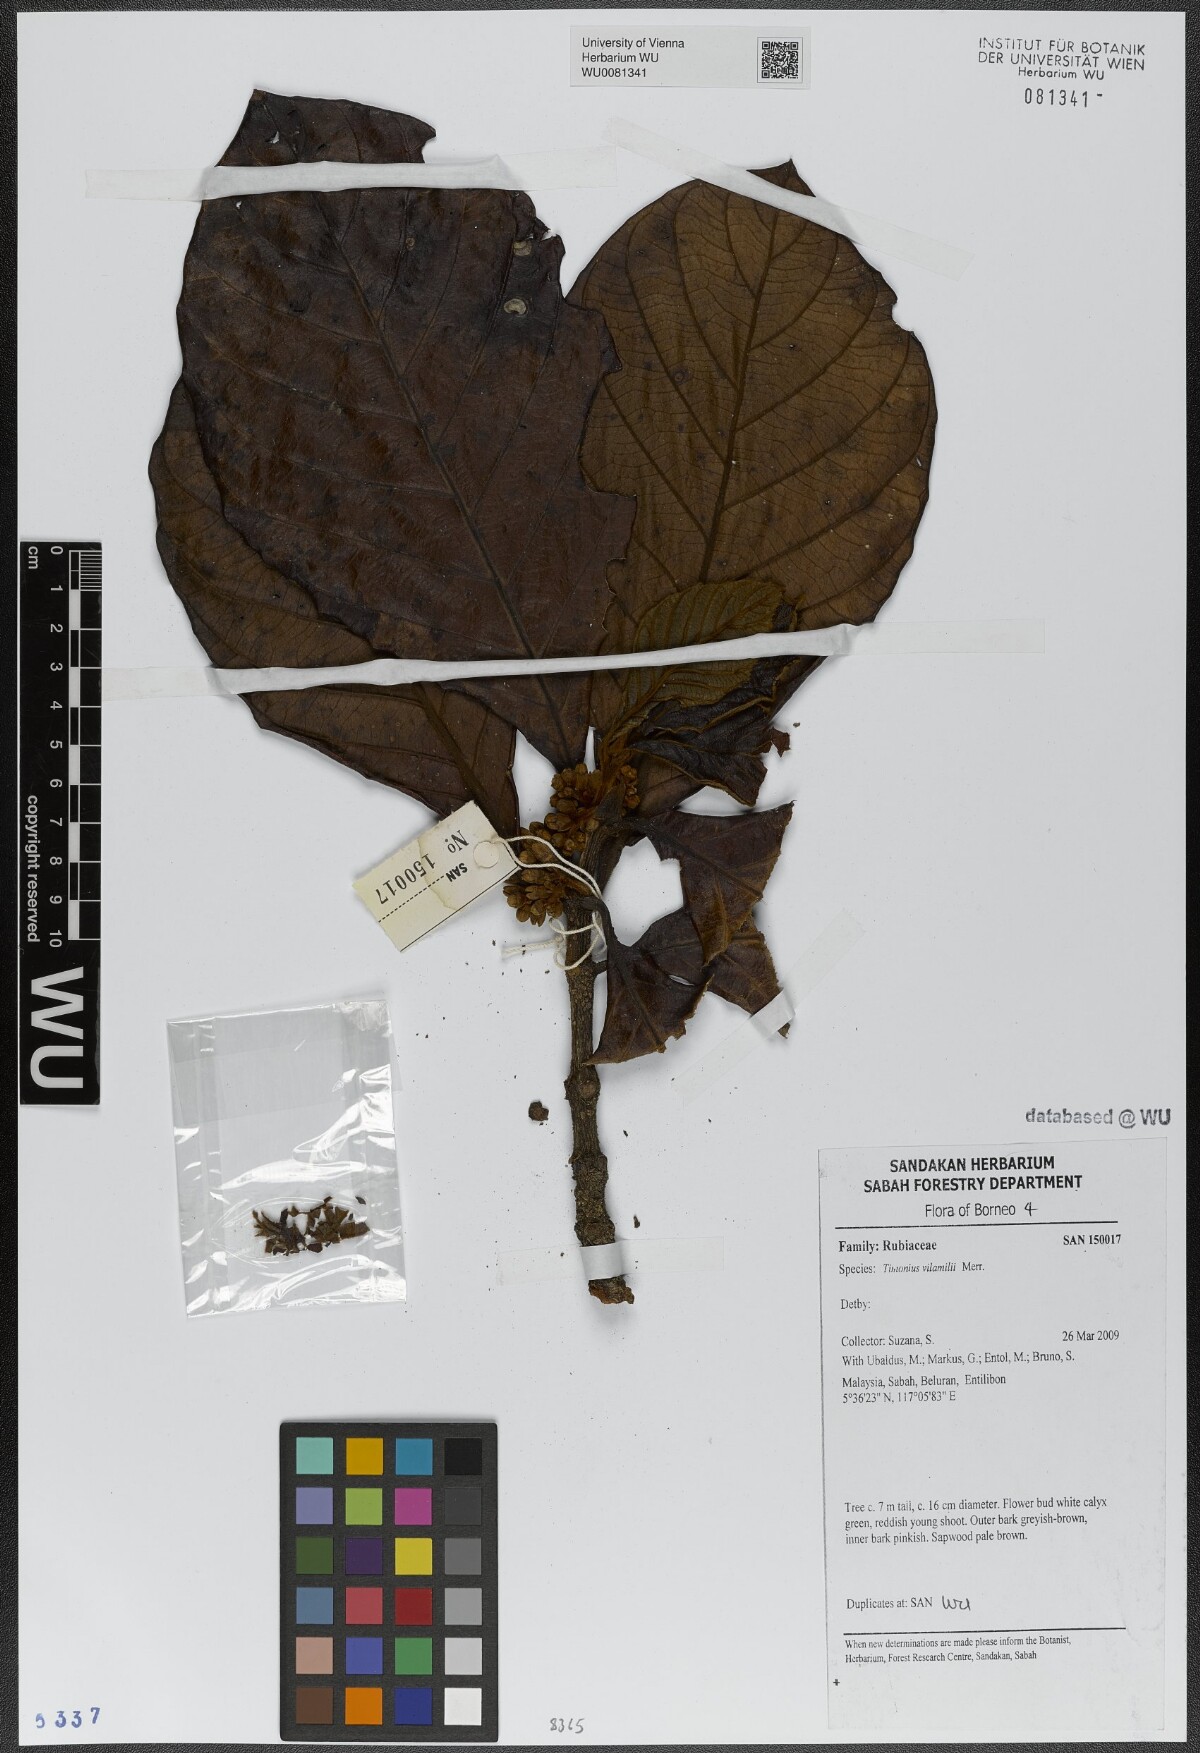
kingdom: Plantae
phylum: Tracheophyta
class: Magnoliopsida
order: Gentianales
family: Rubiaceae
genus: Timonius
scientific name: Timonius palawanensis
